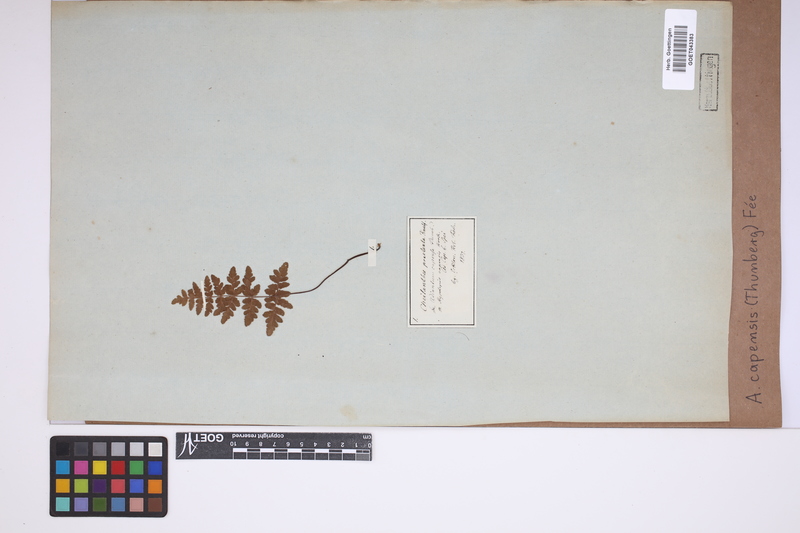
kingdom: Plantae
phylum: Tracheophyta
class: Polypodiopsida
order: Polypodiales
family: Pteridaceae
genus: Cheilanthes
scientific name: Cheilanthes capensis
